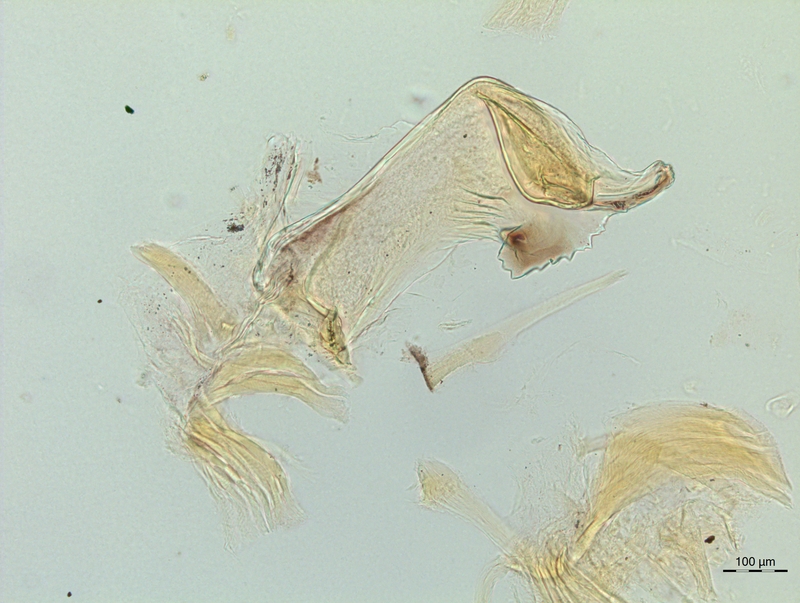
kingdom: Animalia
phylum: Arthropoda
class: Diplopoda
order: Chordeumatida
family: Craspedosomatidae
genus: Craspedosoma
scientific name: Craspedosoma rawlinsii
